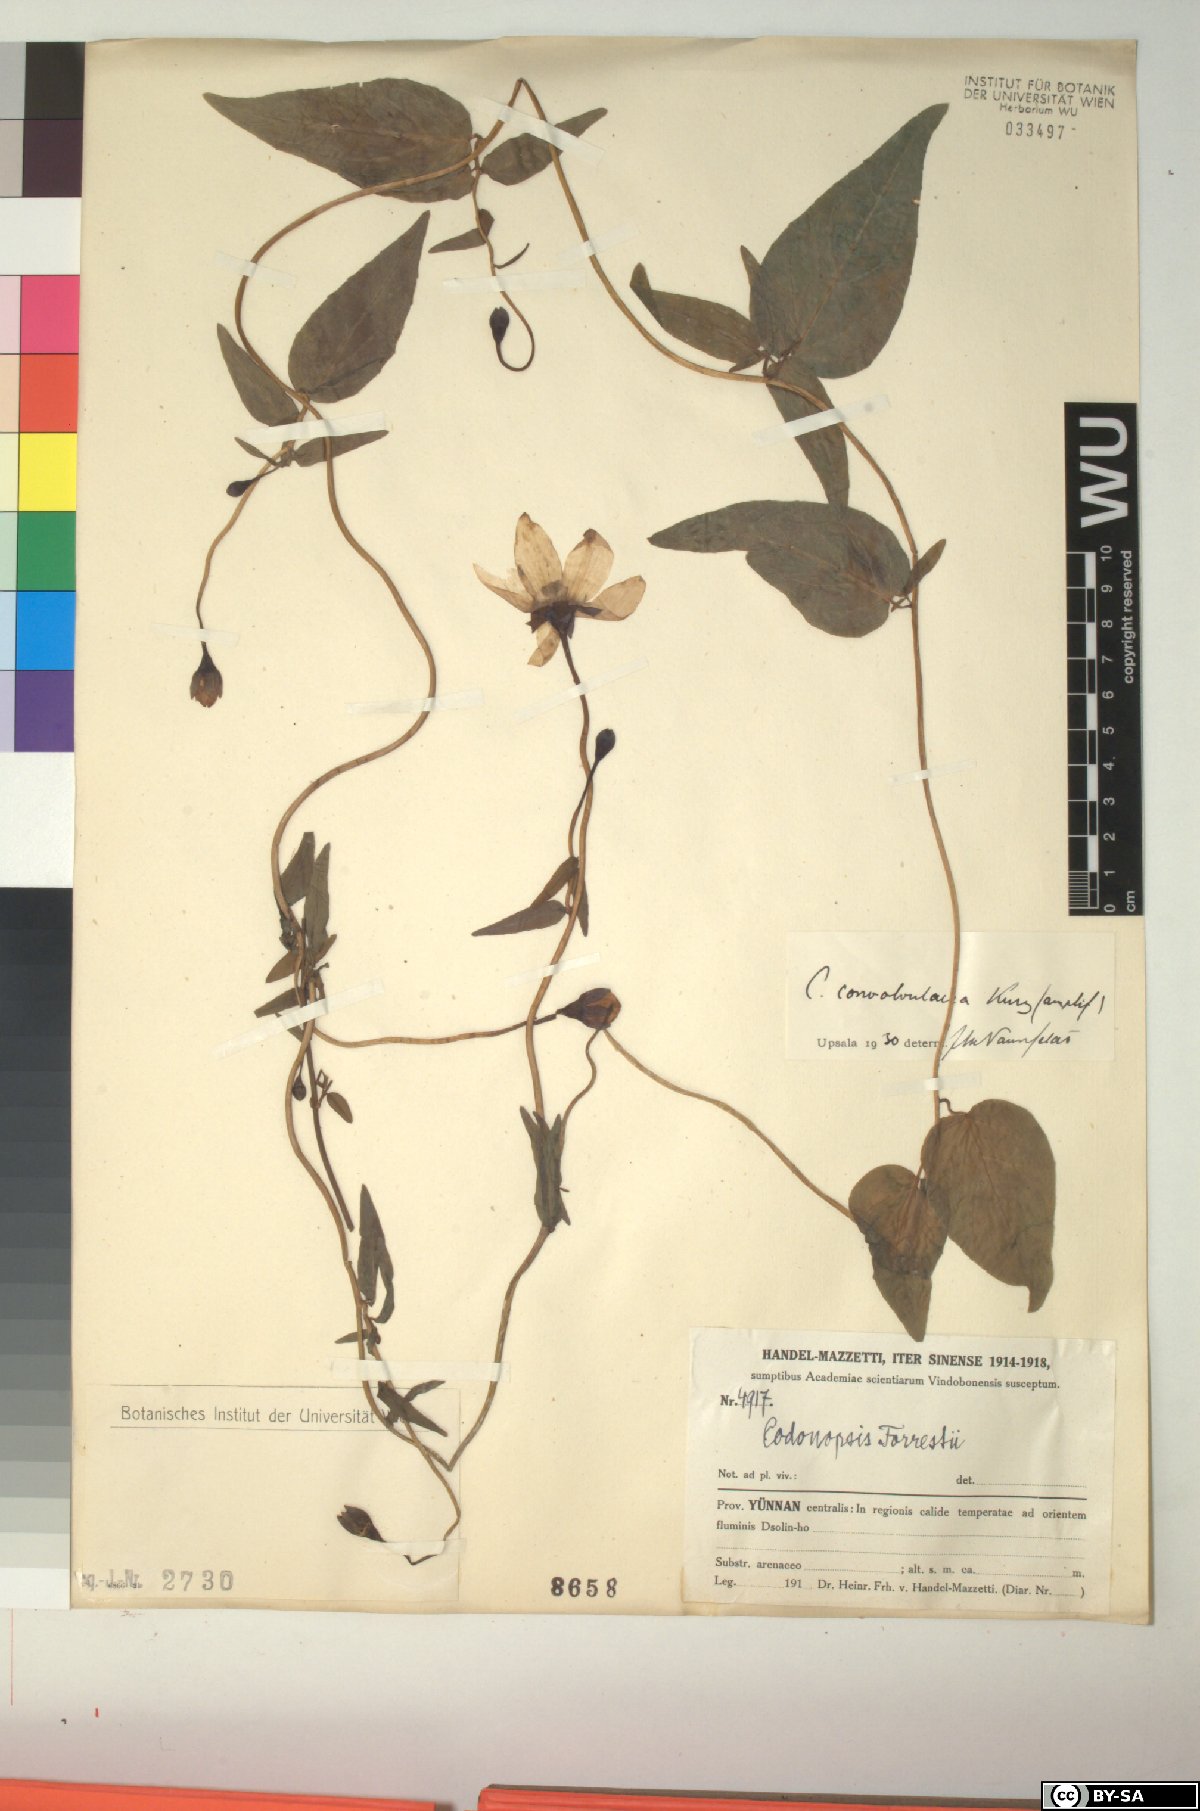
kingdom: Plantae
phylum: Tracheophyta
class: Magnoliopsida
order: Asterales
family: Campanulaceae
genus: Pseudocodon
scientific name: Pseudocodon convolvulaceus
